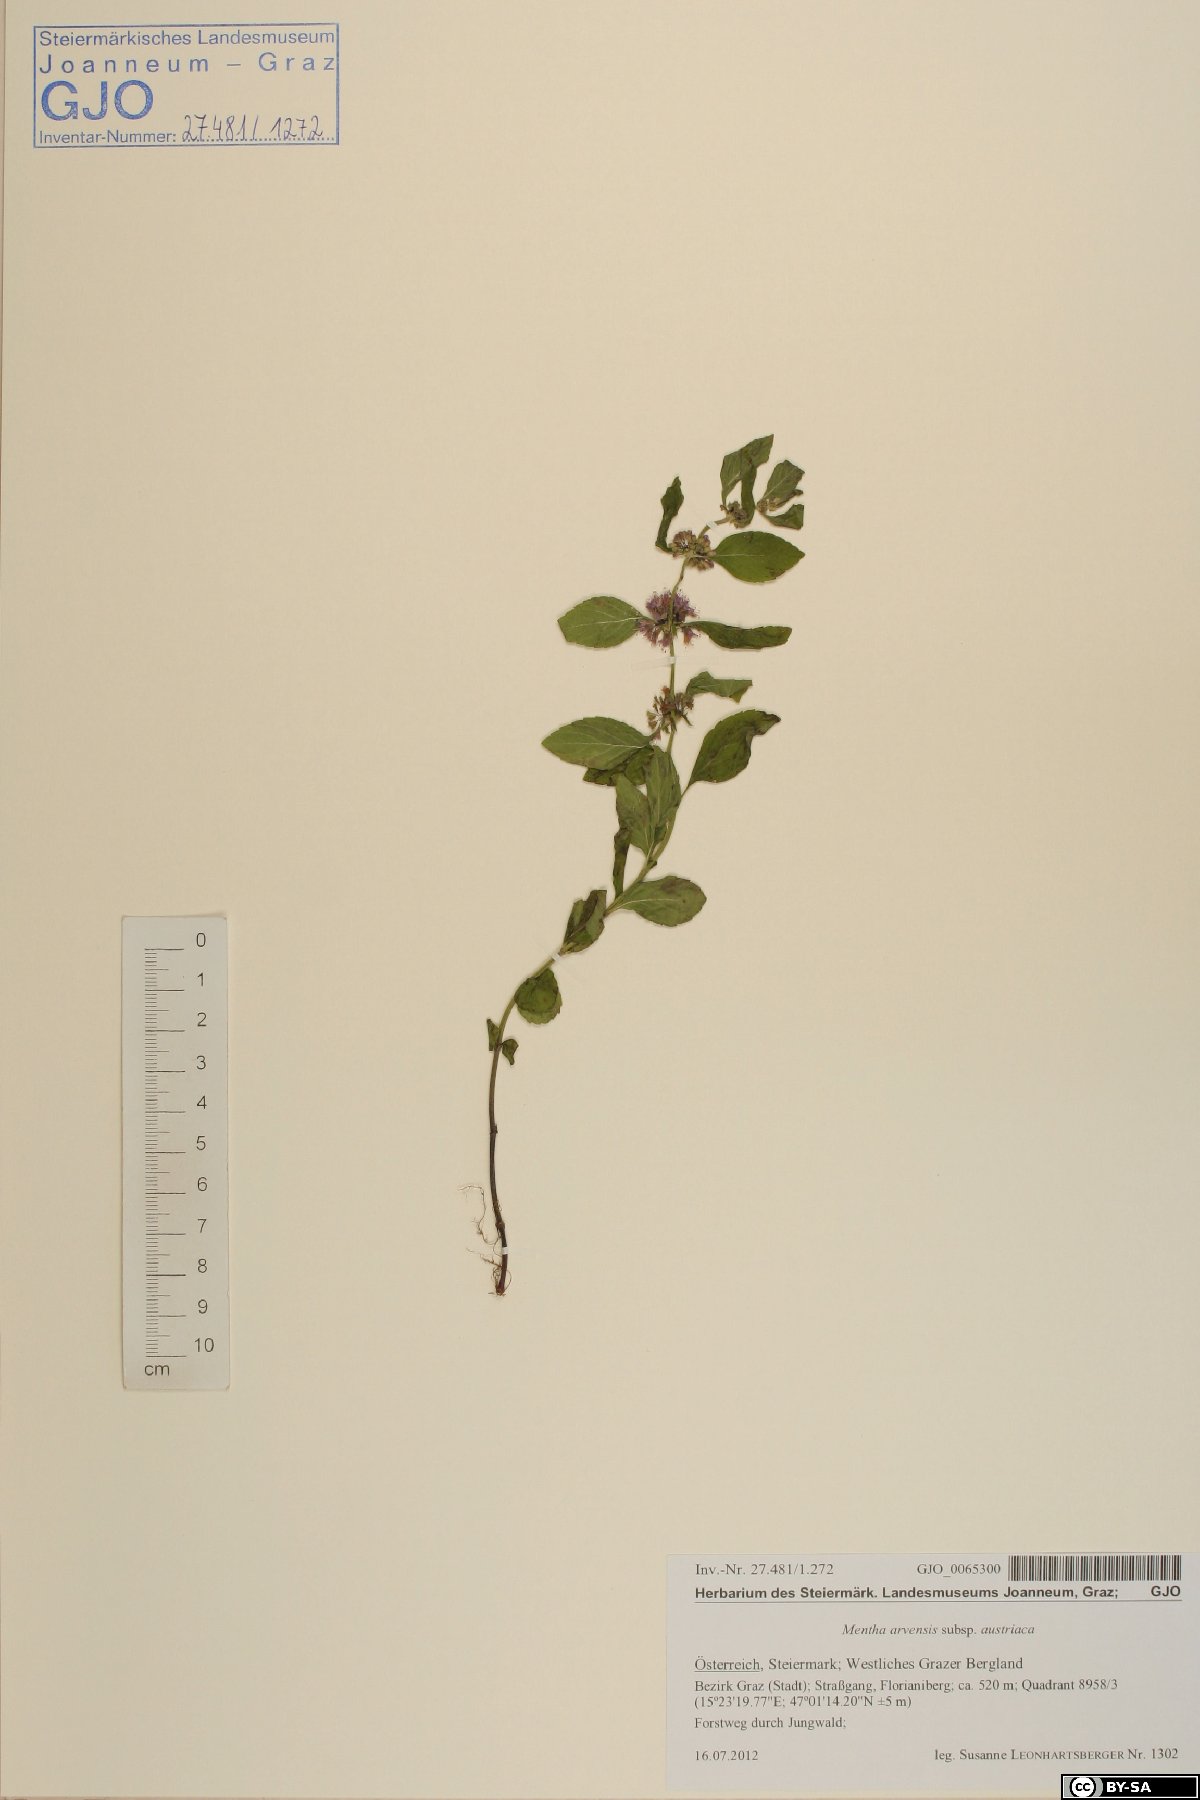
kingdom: Plantae
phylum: Tracheophyta
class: Magnoliopsida
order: Lamiales
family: Lamiaceae
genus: Mentha
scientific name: Mentha arvensis
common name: Corn mint
